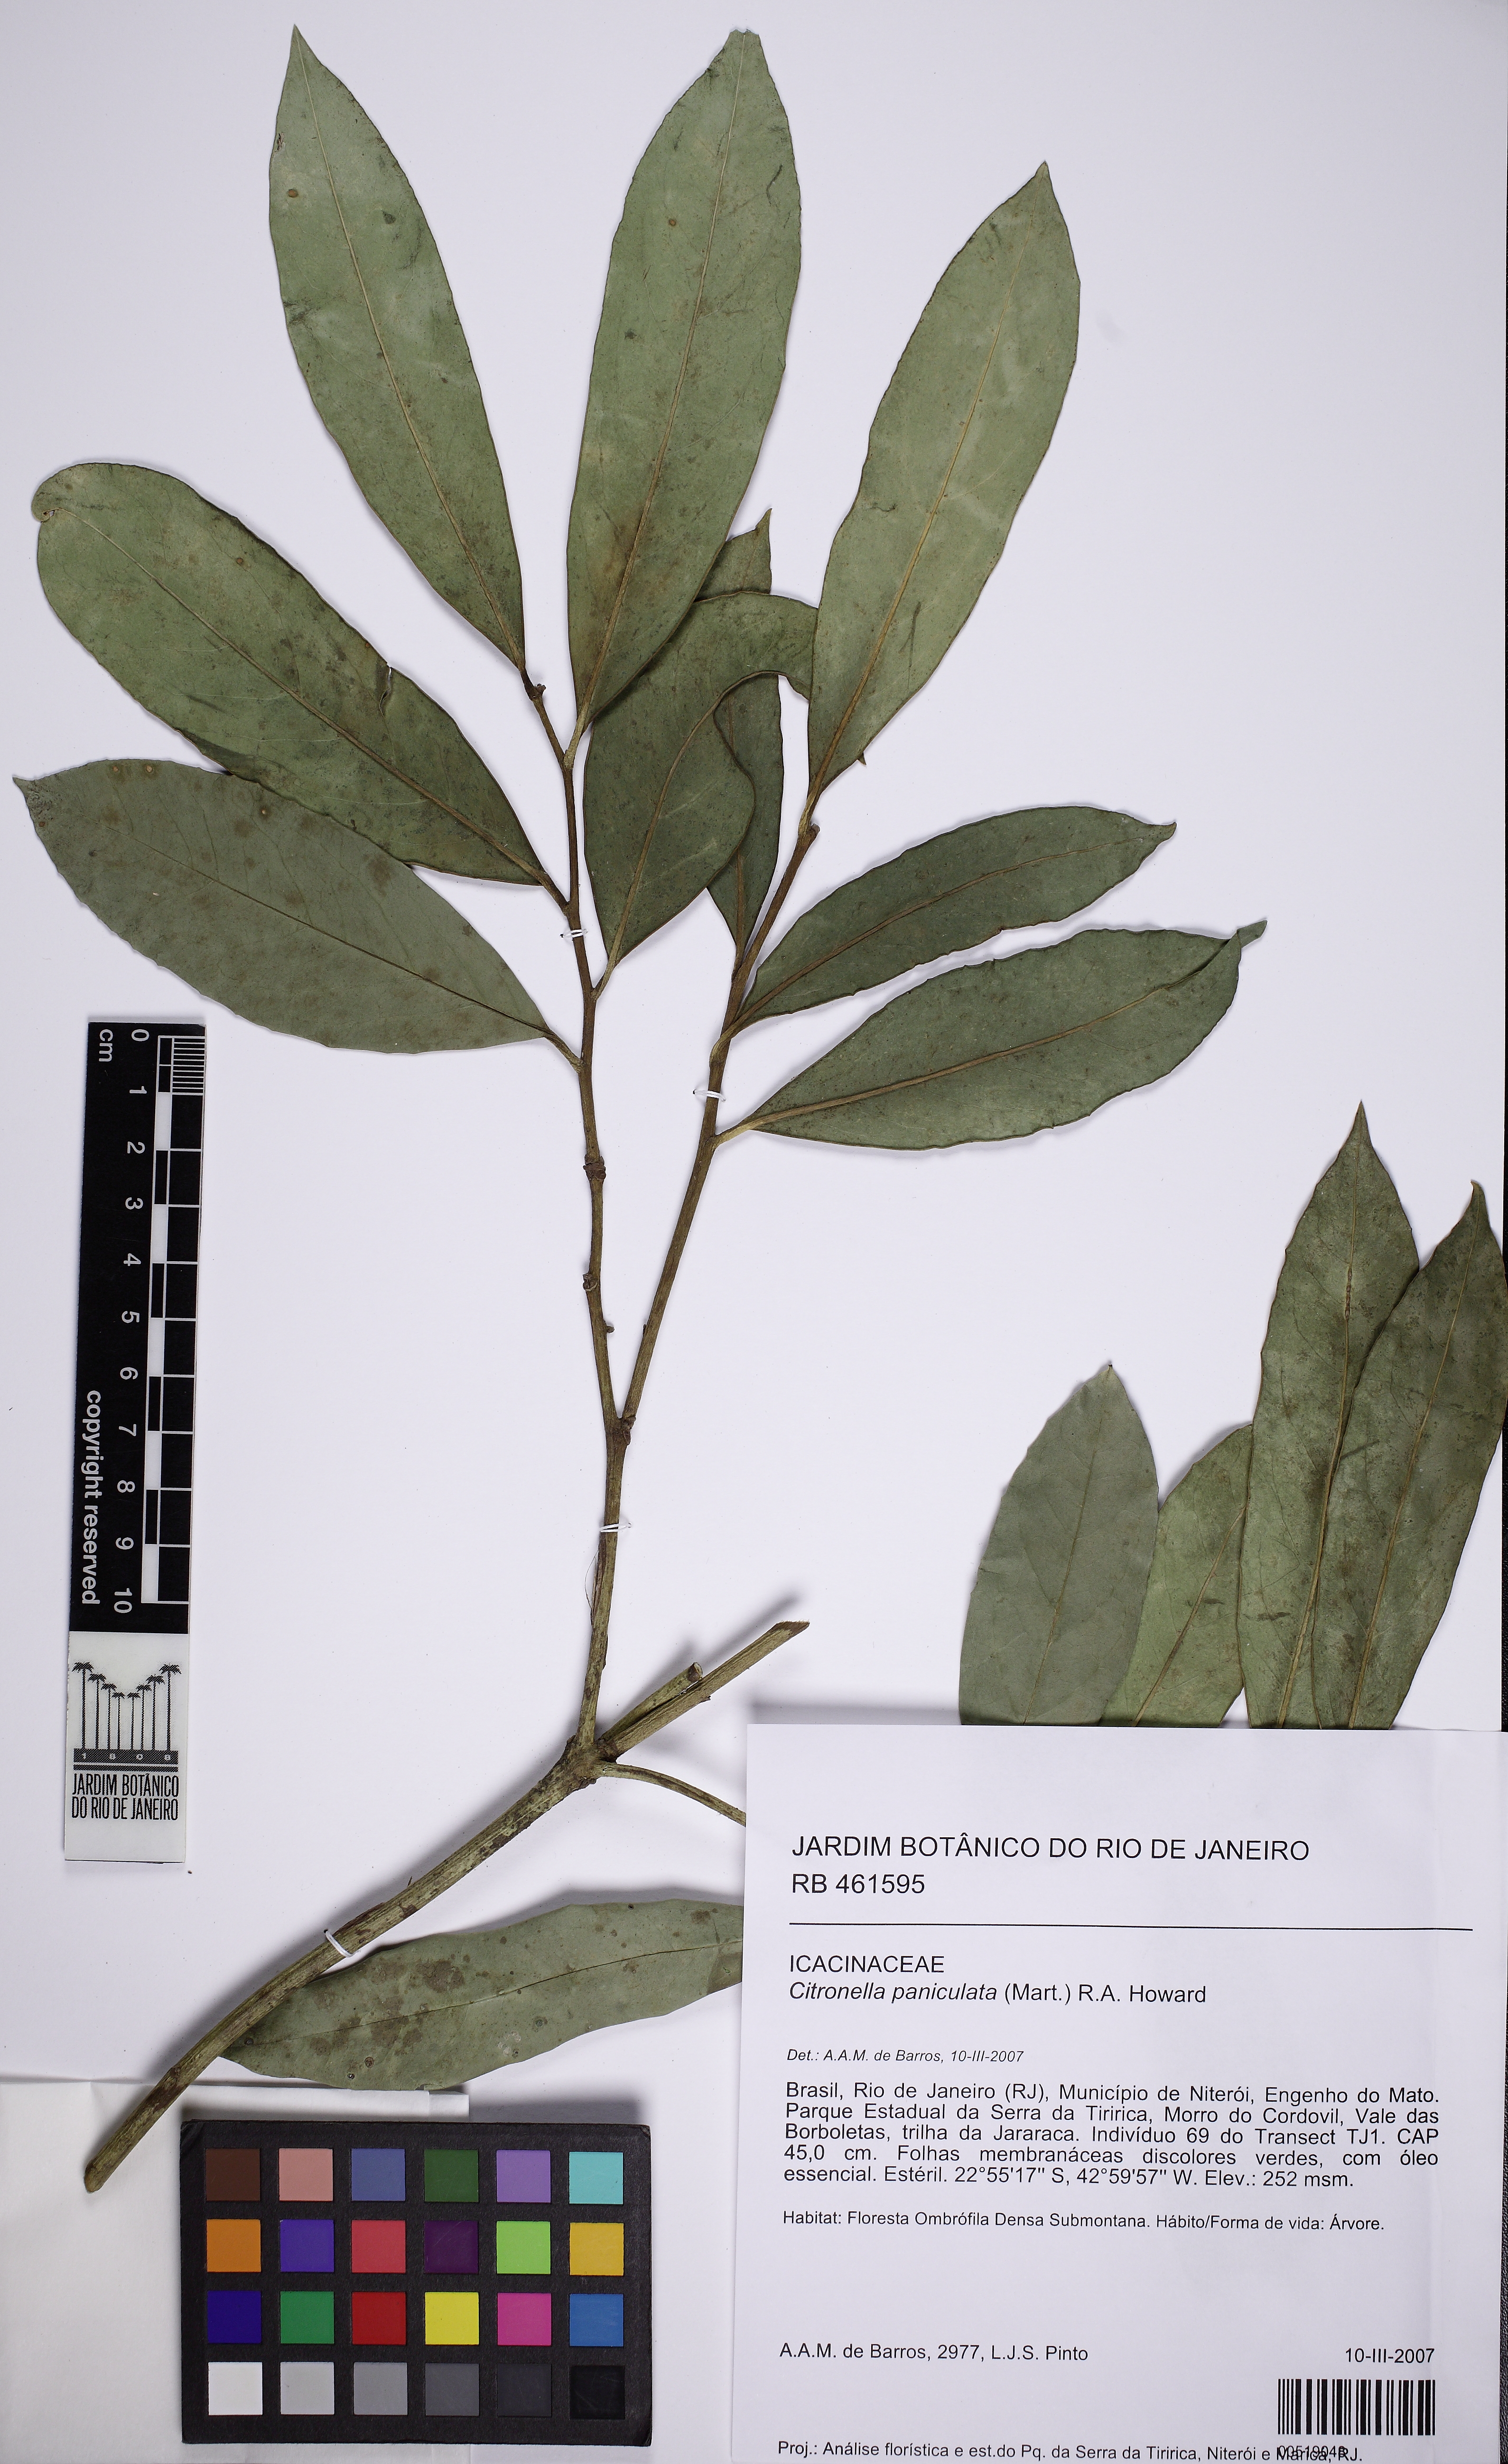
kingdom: Plantae
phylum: Tracheophyta
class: Magnoliopsida
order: Cardiopteridales
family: Cardiopteridaceae
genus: Citronella
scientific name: Citronella paniculata
